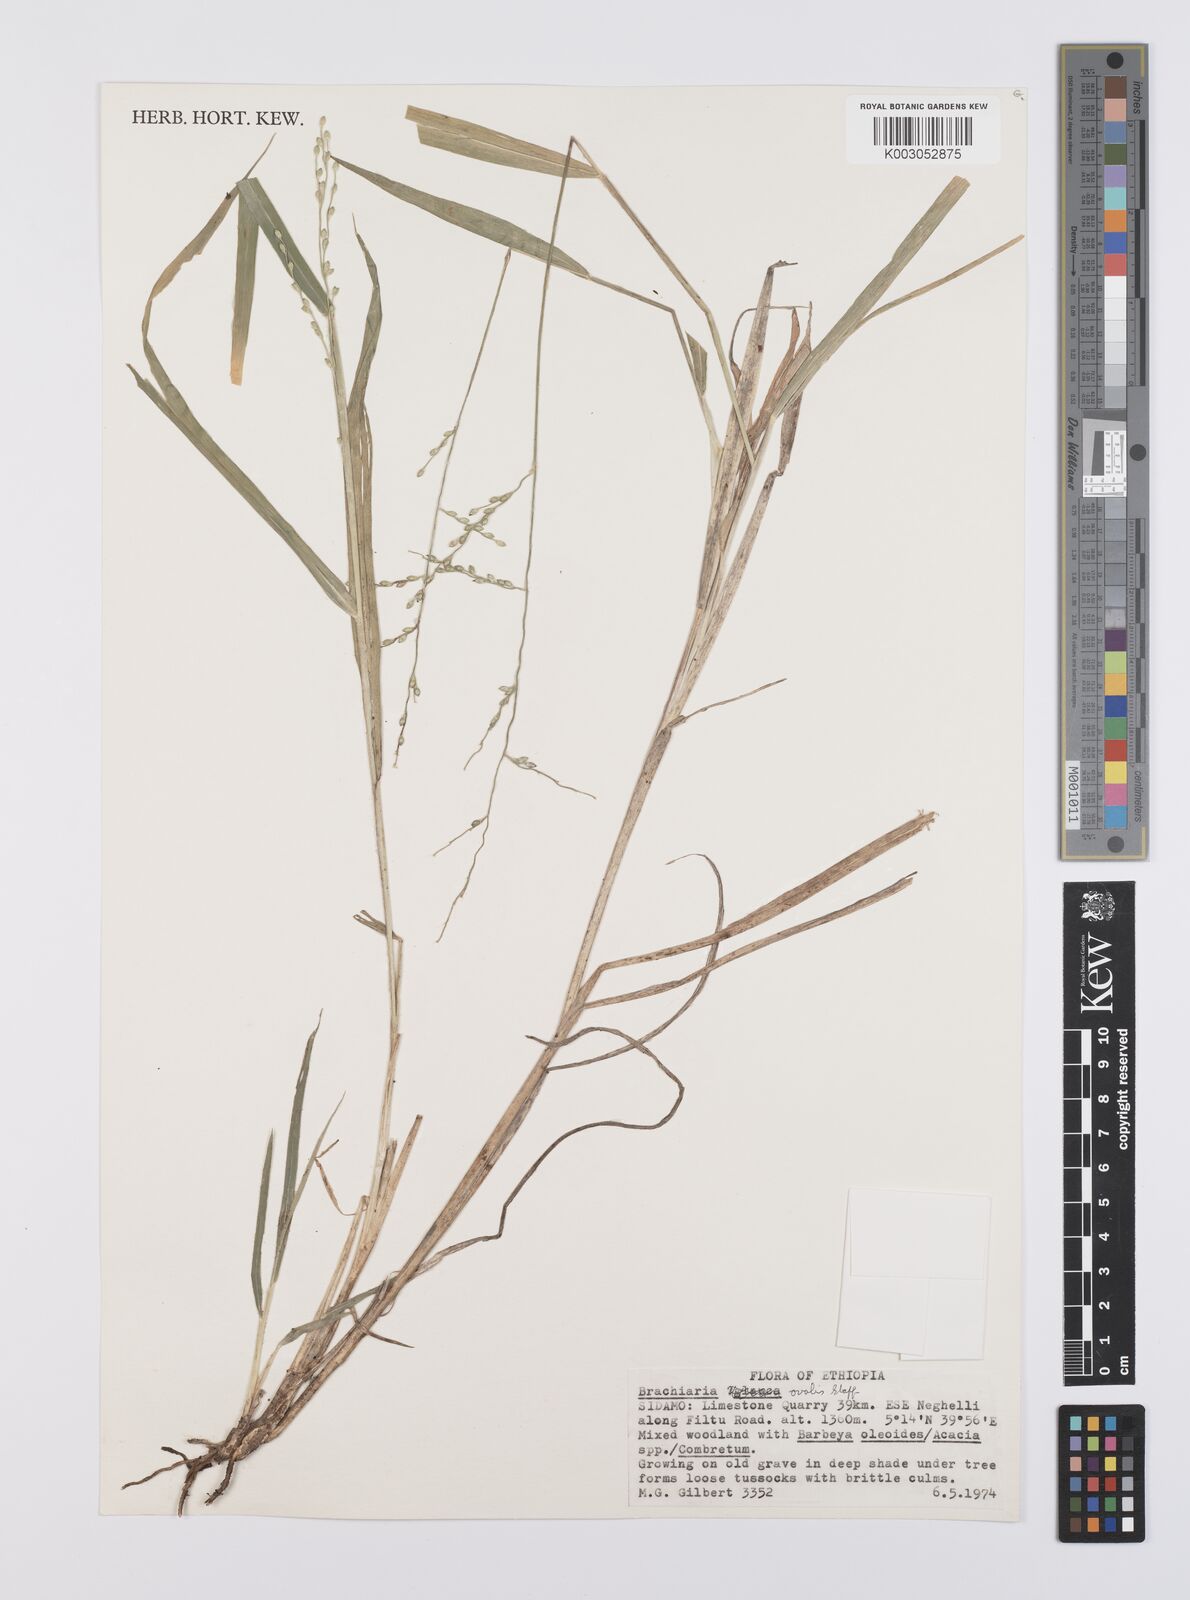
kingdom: Plantae
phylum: Tracheophyta
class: Liliopsida
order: Poales
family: Poaceae
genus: Urochloa
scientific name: Urochloa ovalis
